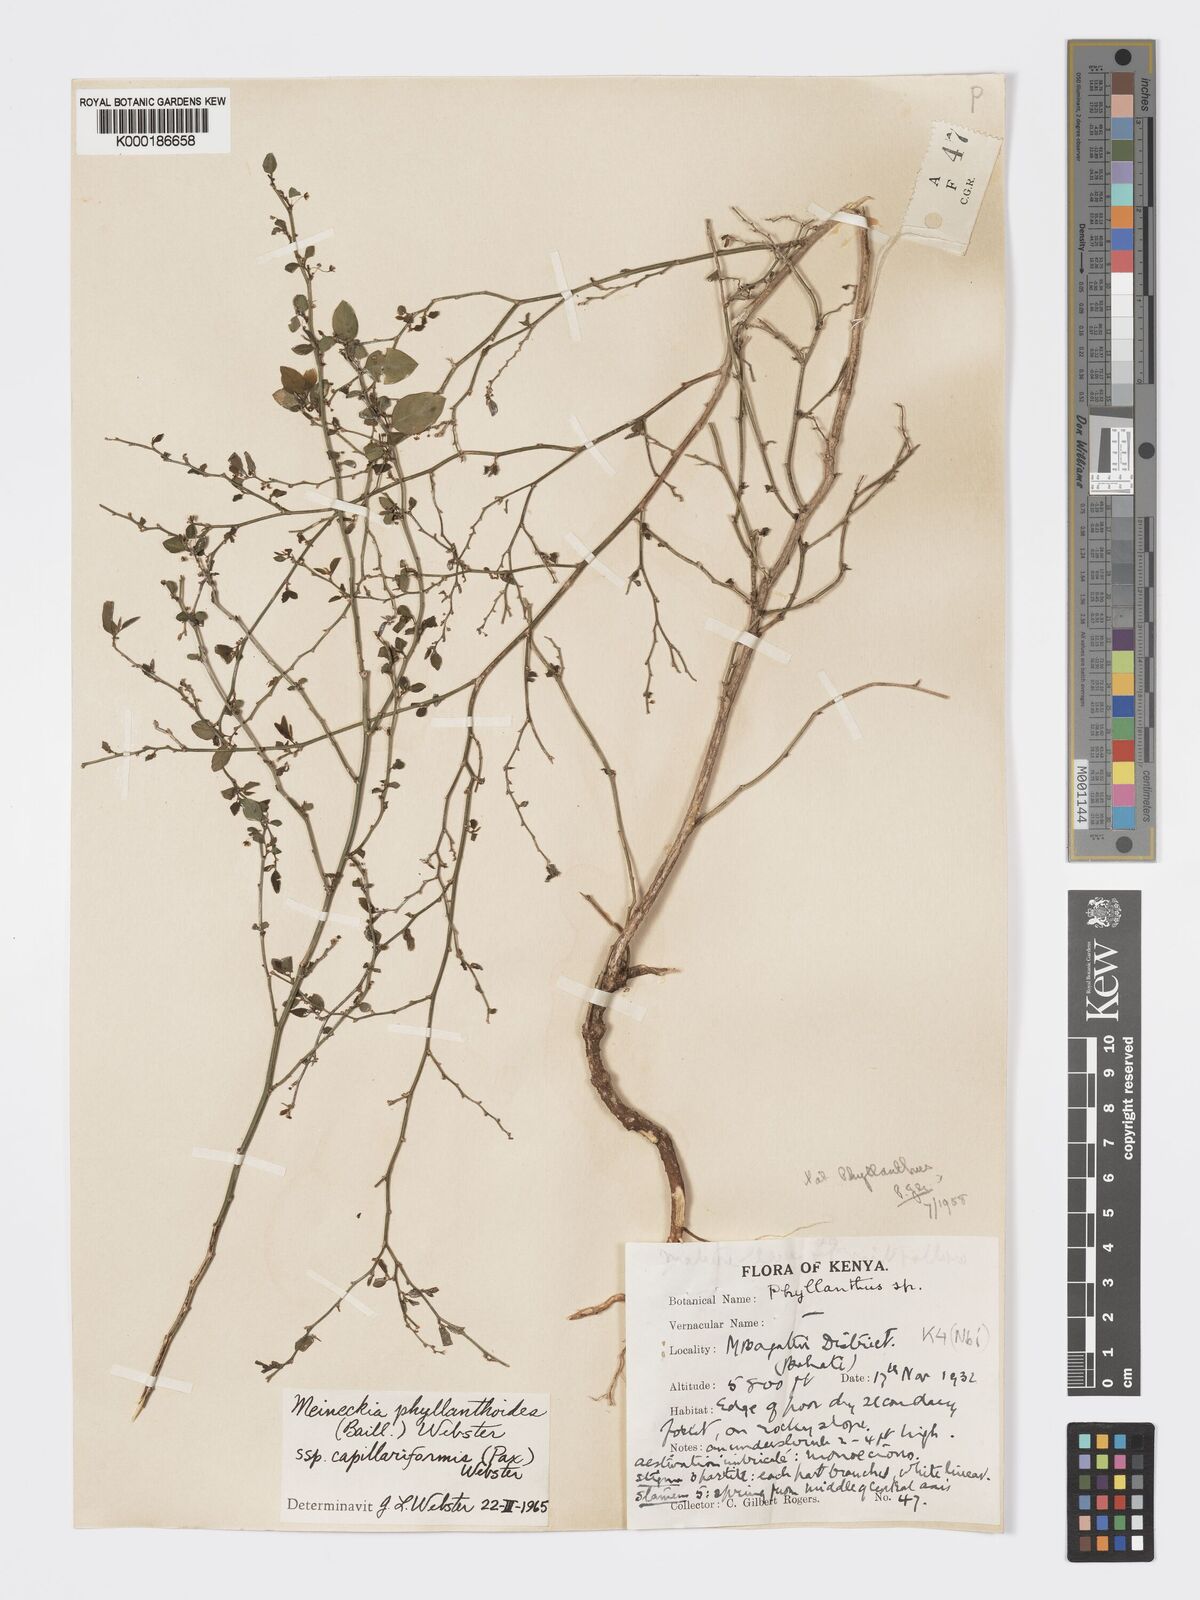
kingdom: Plantae
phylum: Tracheophyta
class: Magnoliopsida
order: Malpighiales
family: Phyllanthaceae
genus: Meineckia
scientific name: Meineckia phyllanthoides
